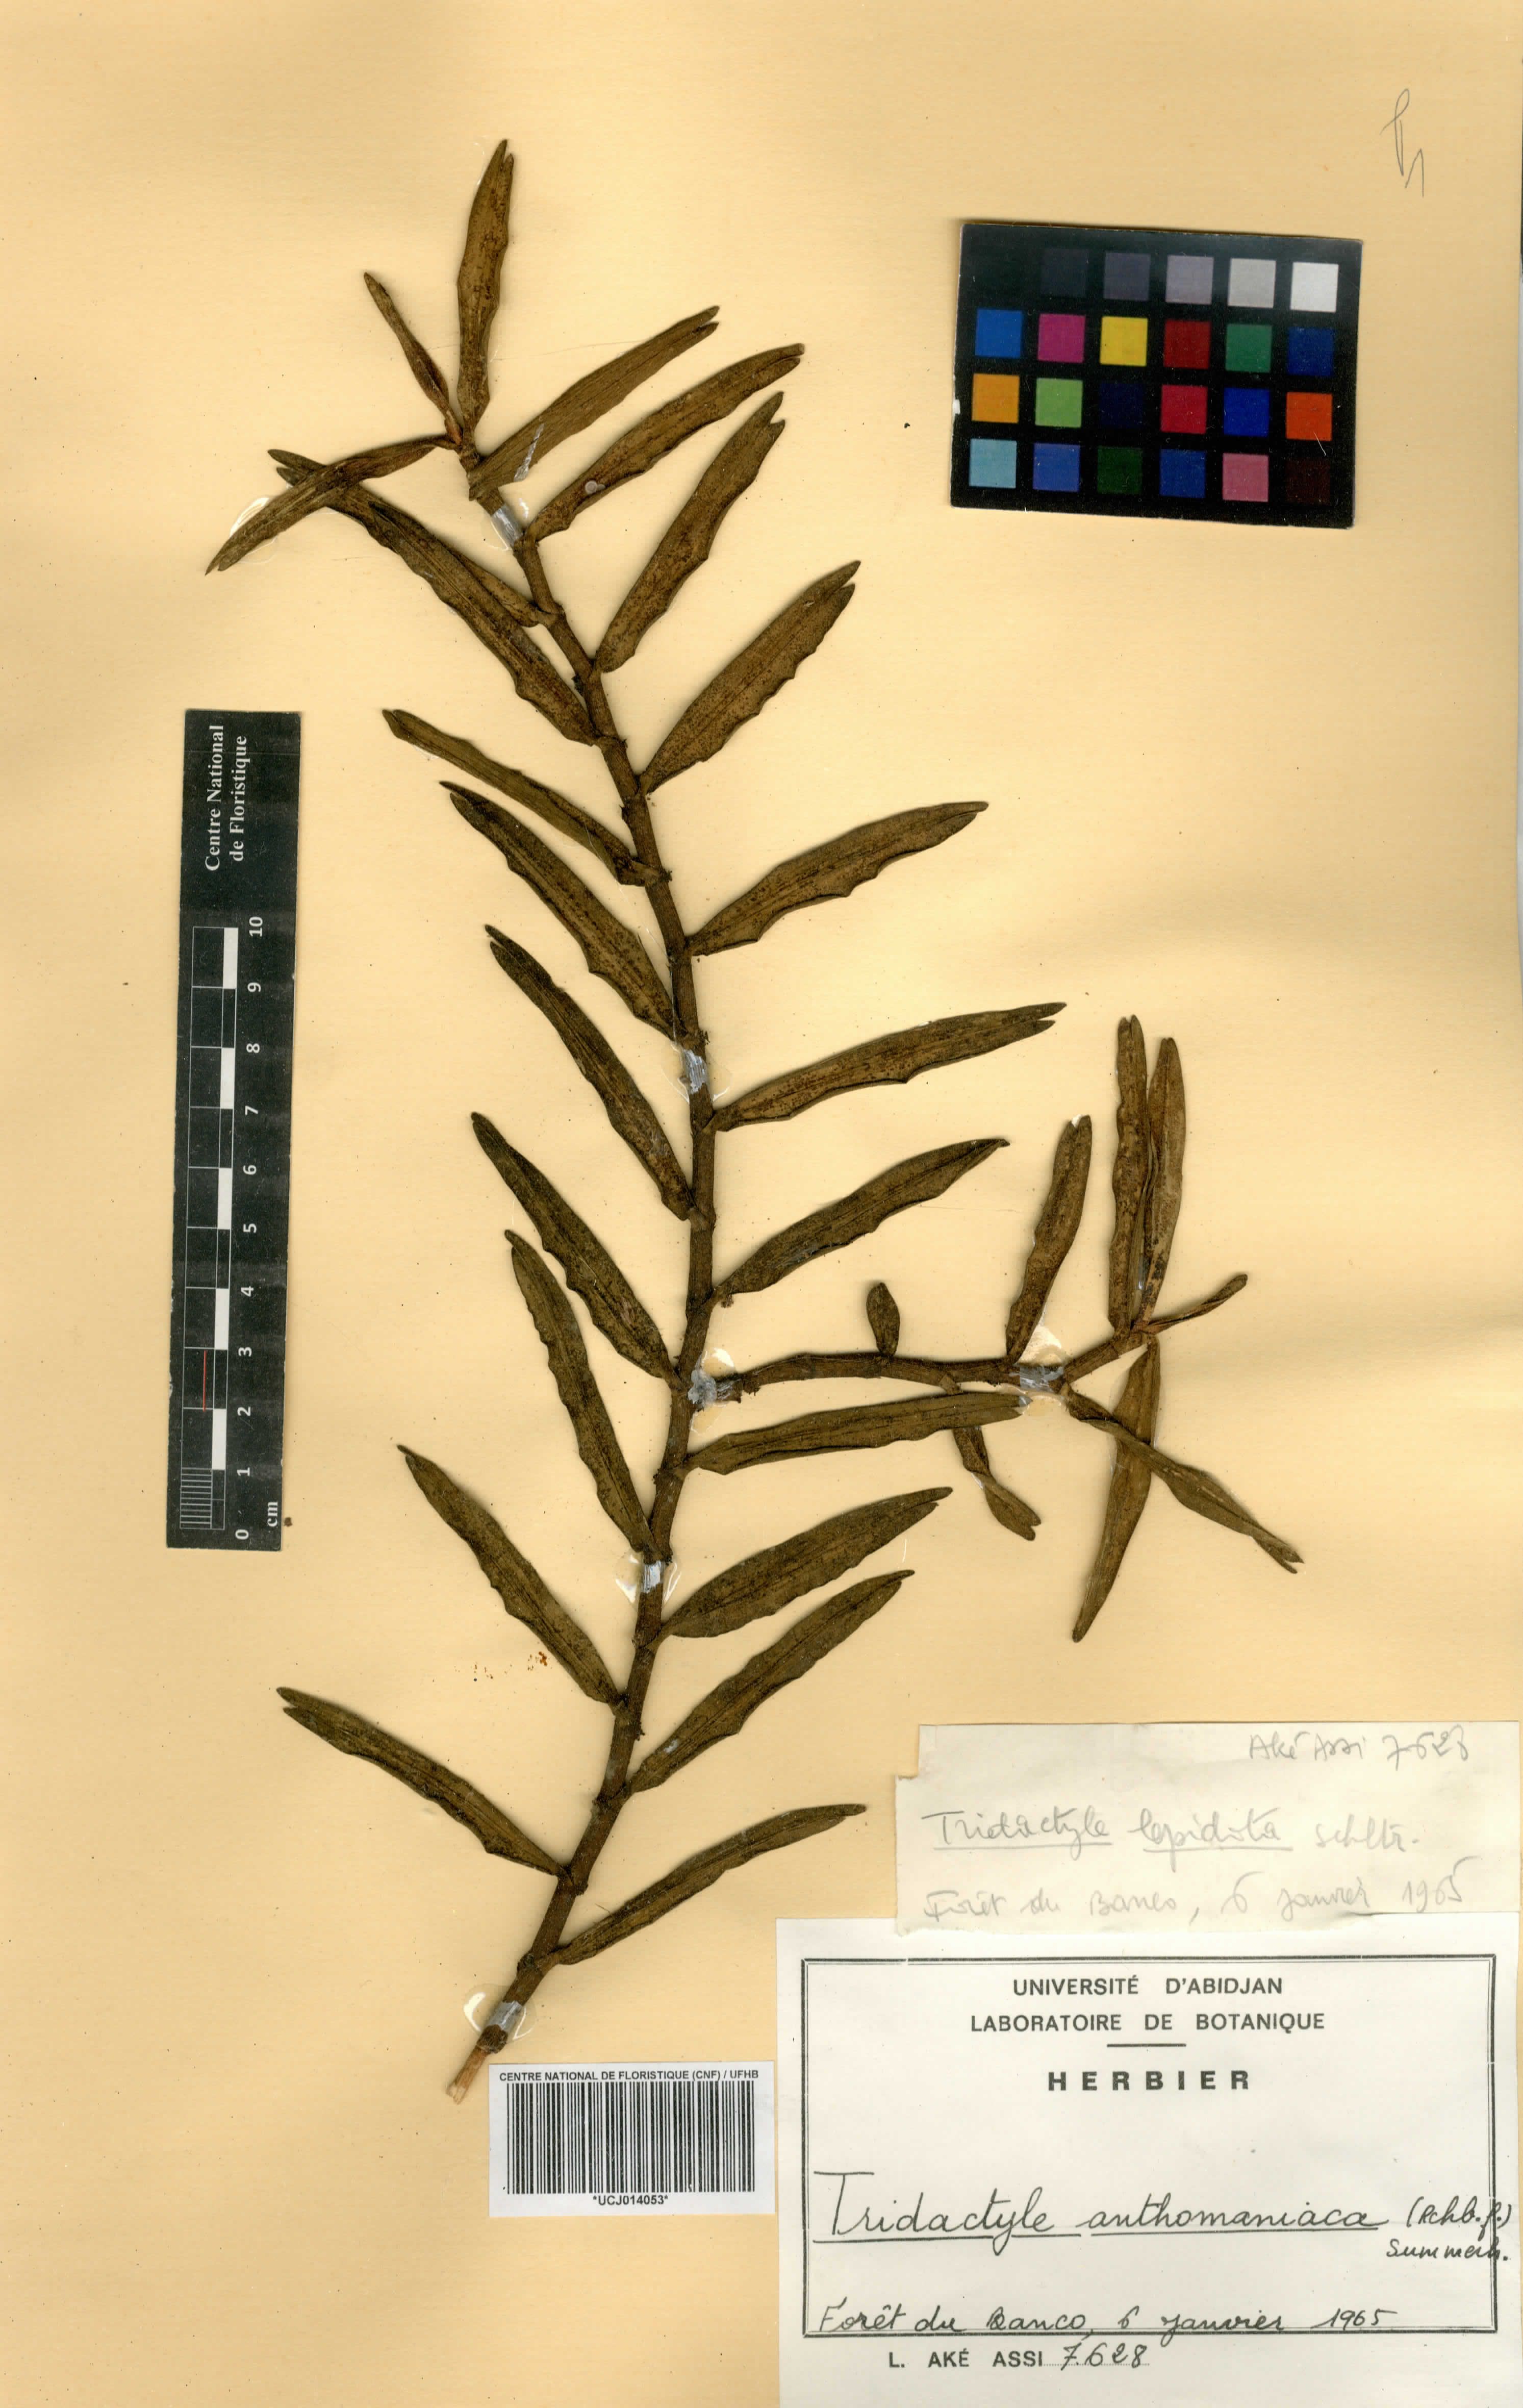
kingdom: Plantae
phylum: Tracheophyta
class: Liliopsida
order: Asparagales
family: Orchidaceae
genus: Tridactyle
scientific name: Tridactyle anthomaniaca
